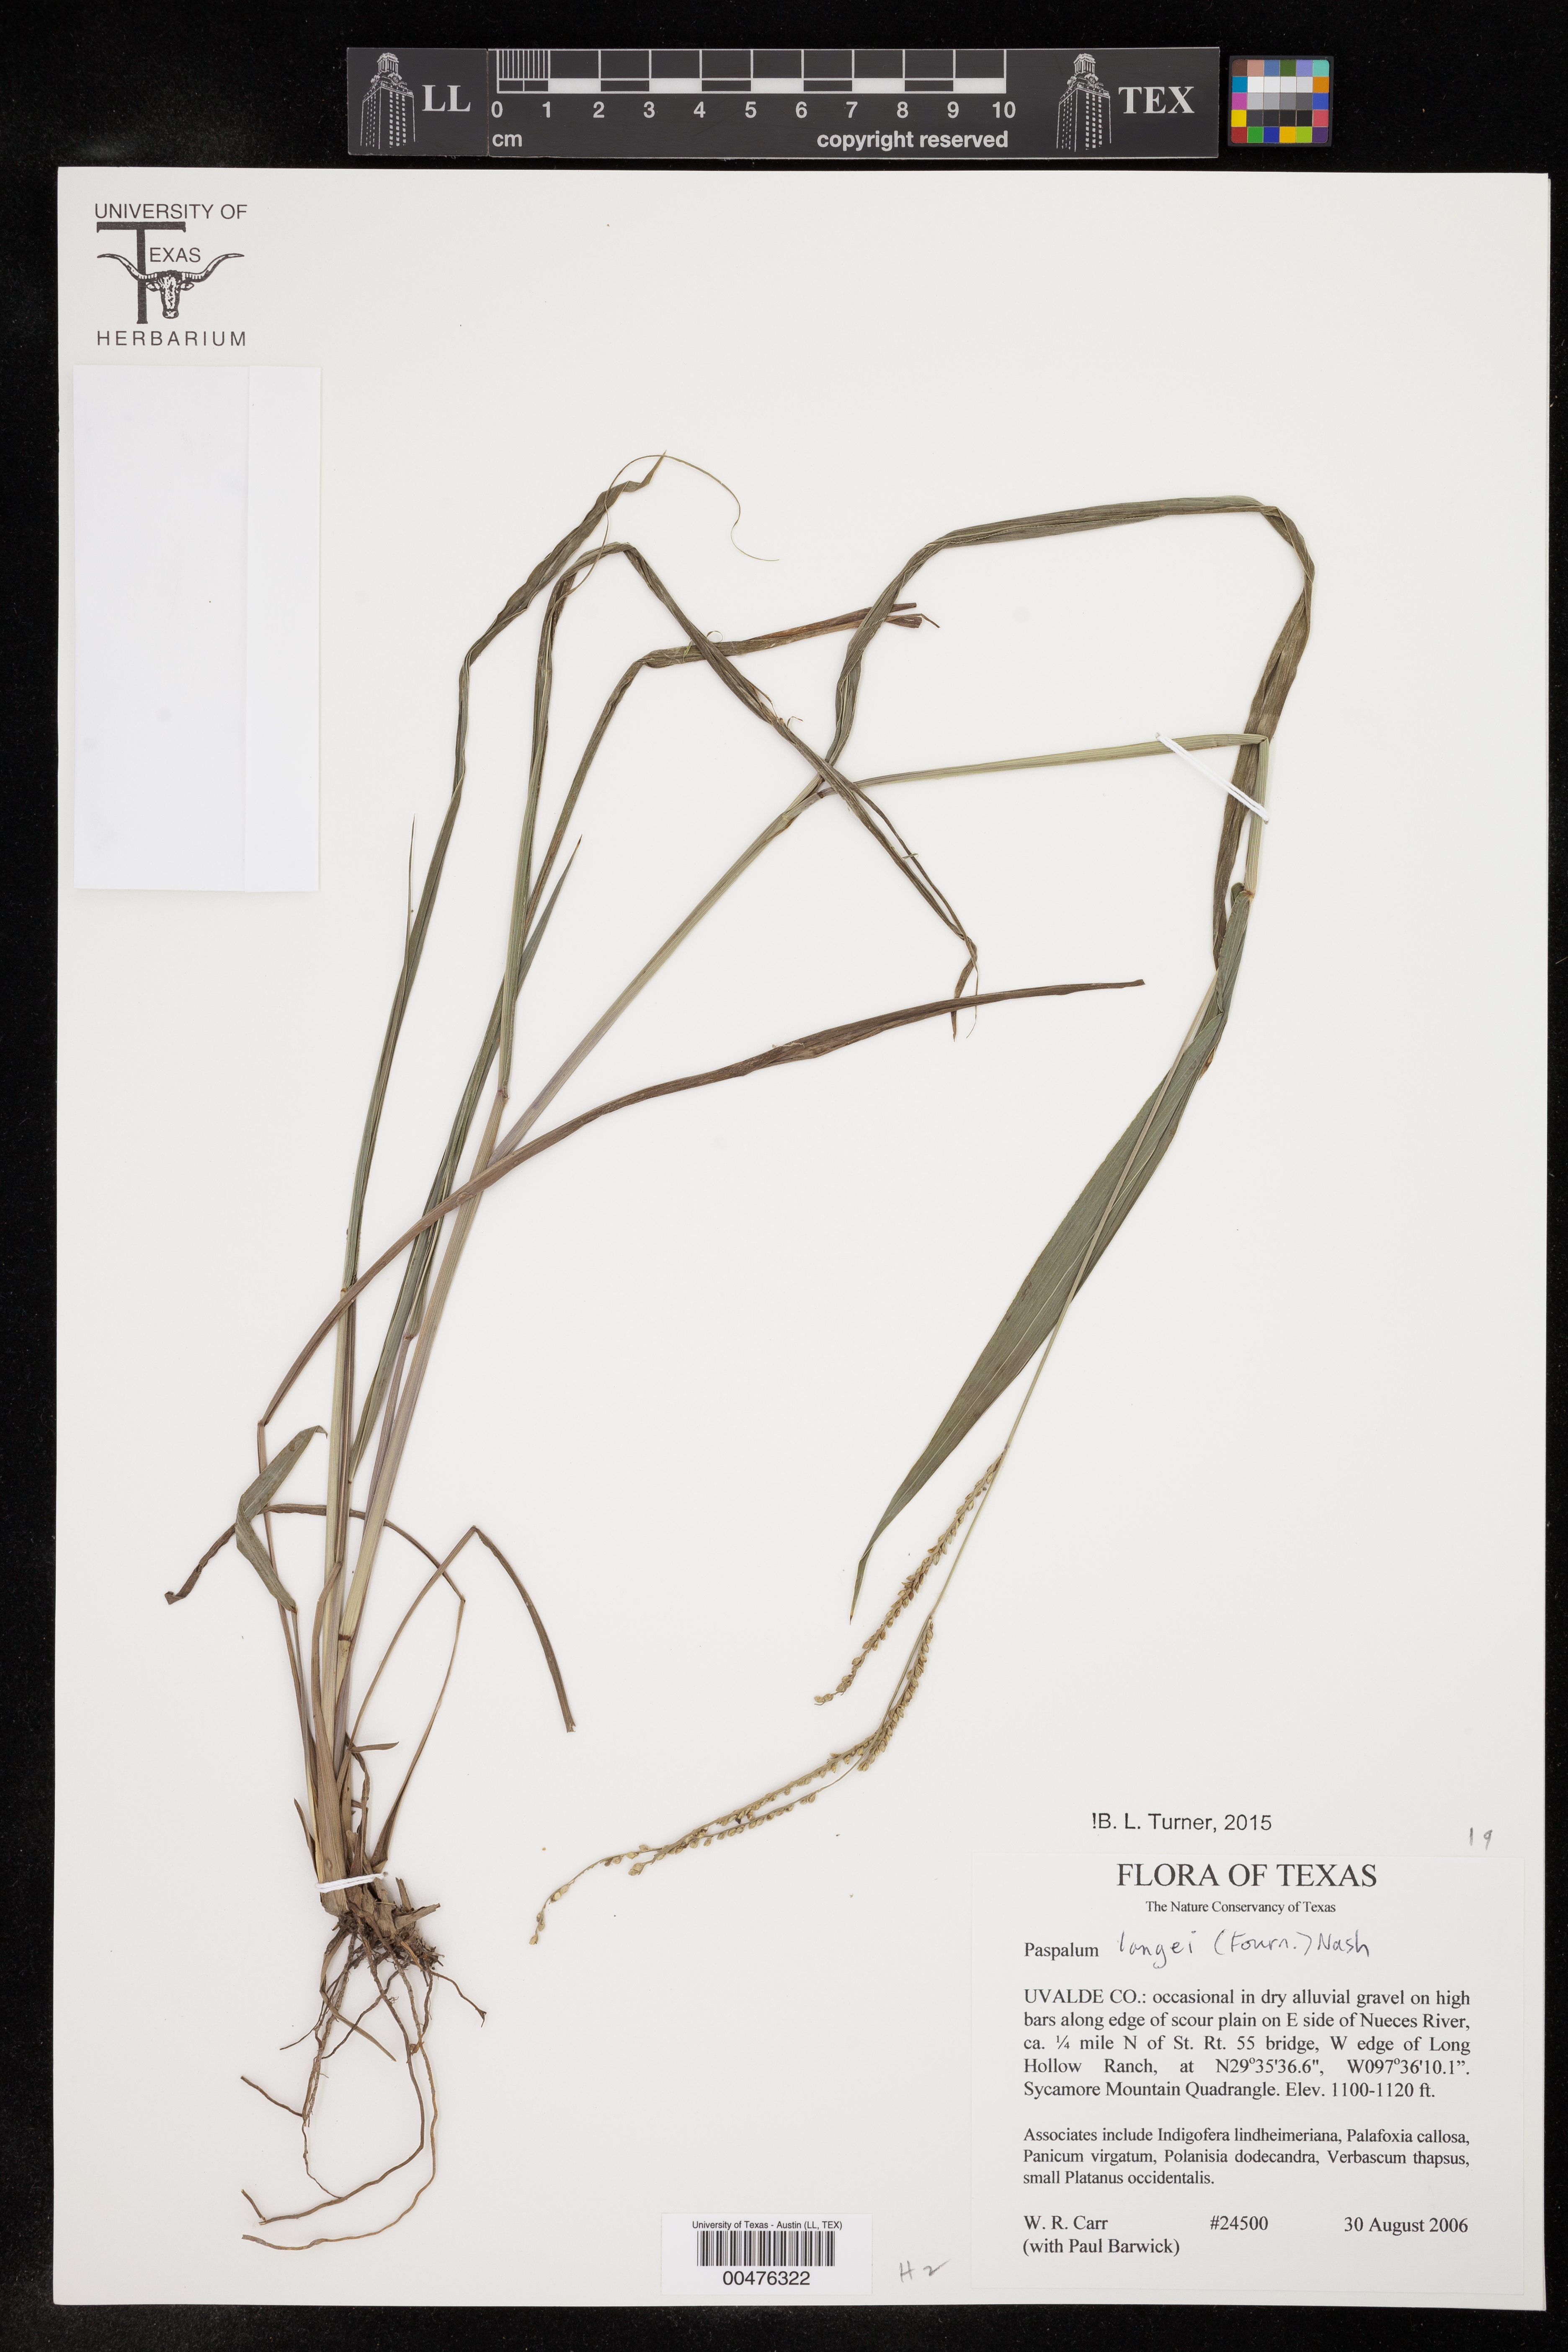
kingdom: Plantae
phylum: Tracheophyta
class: Liliopsida
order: Poales
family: Poaceae
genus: Paspalum
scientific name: Paspalum langei
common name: Rusty-seed paspalum
